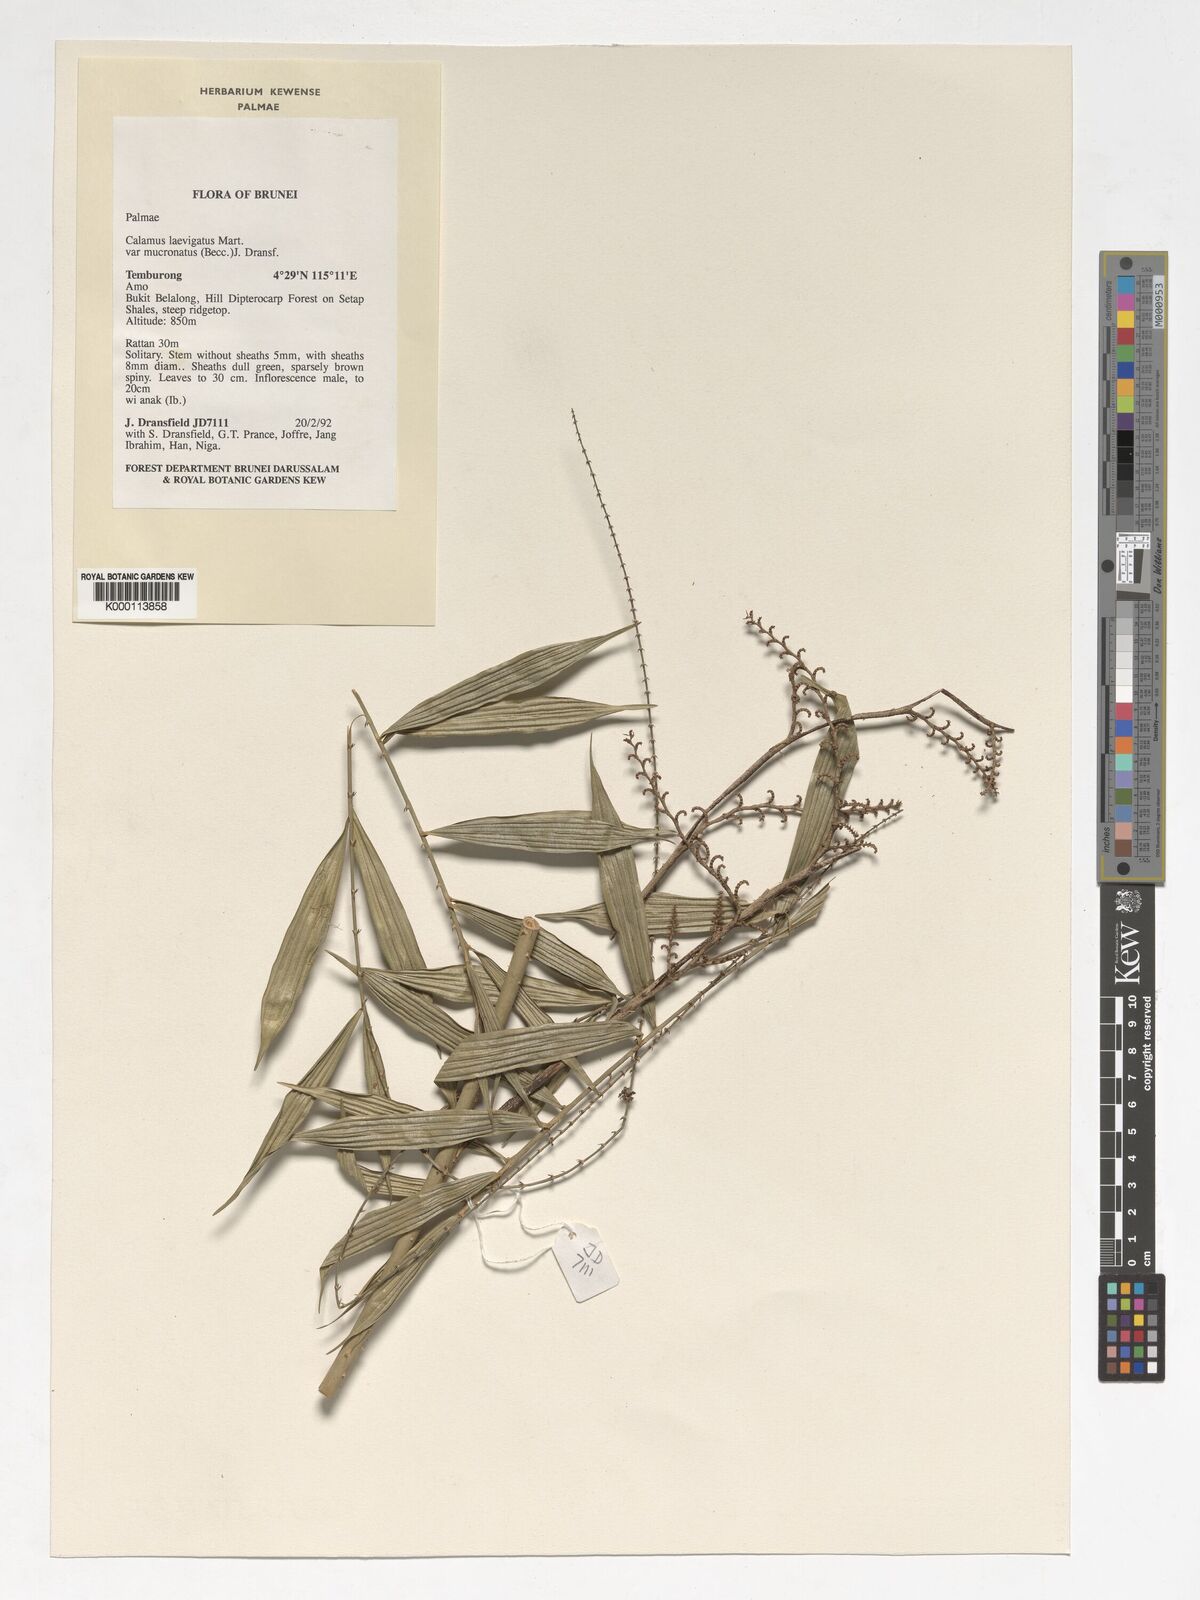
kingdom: Plantae
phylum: Tracheophyta
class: Liliopsida
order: Arecales
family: Arecaceae
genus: Calamus
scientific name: Calamus plicatus
